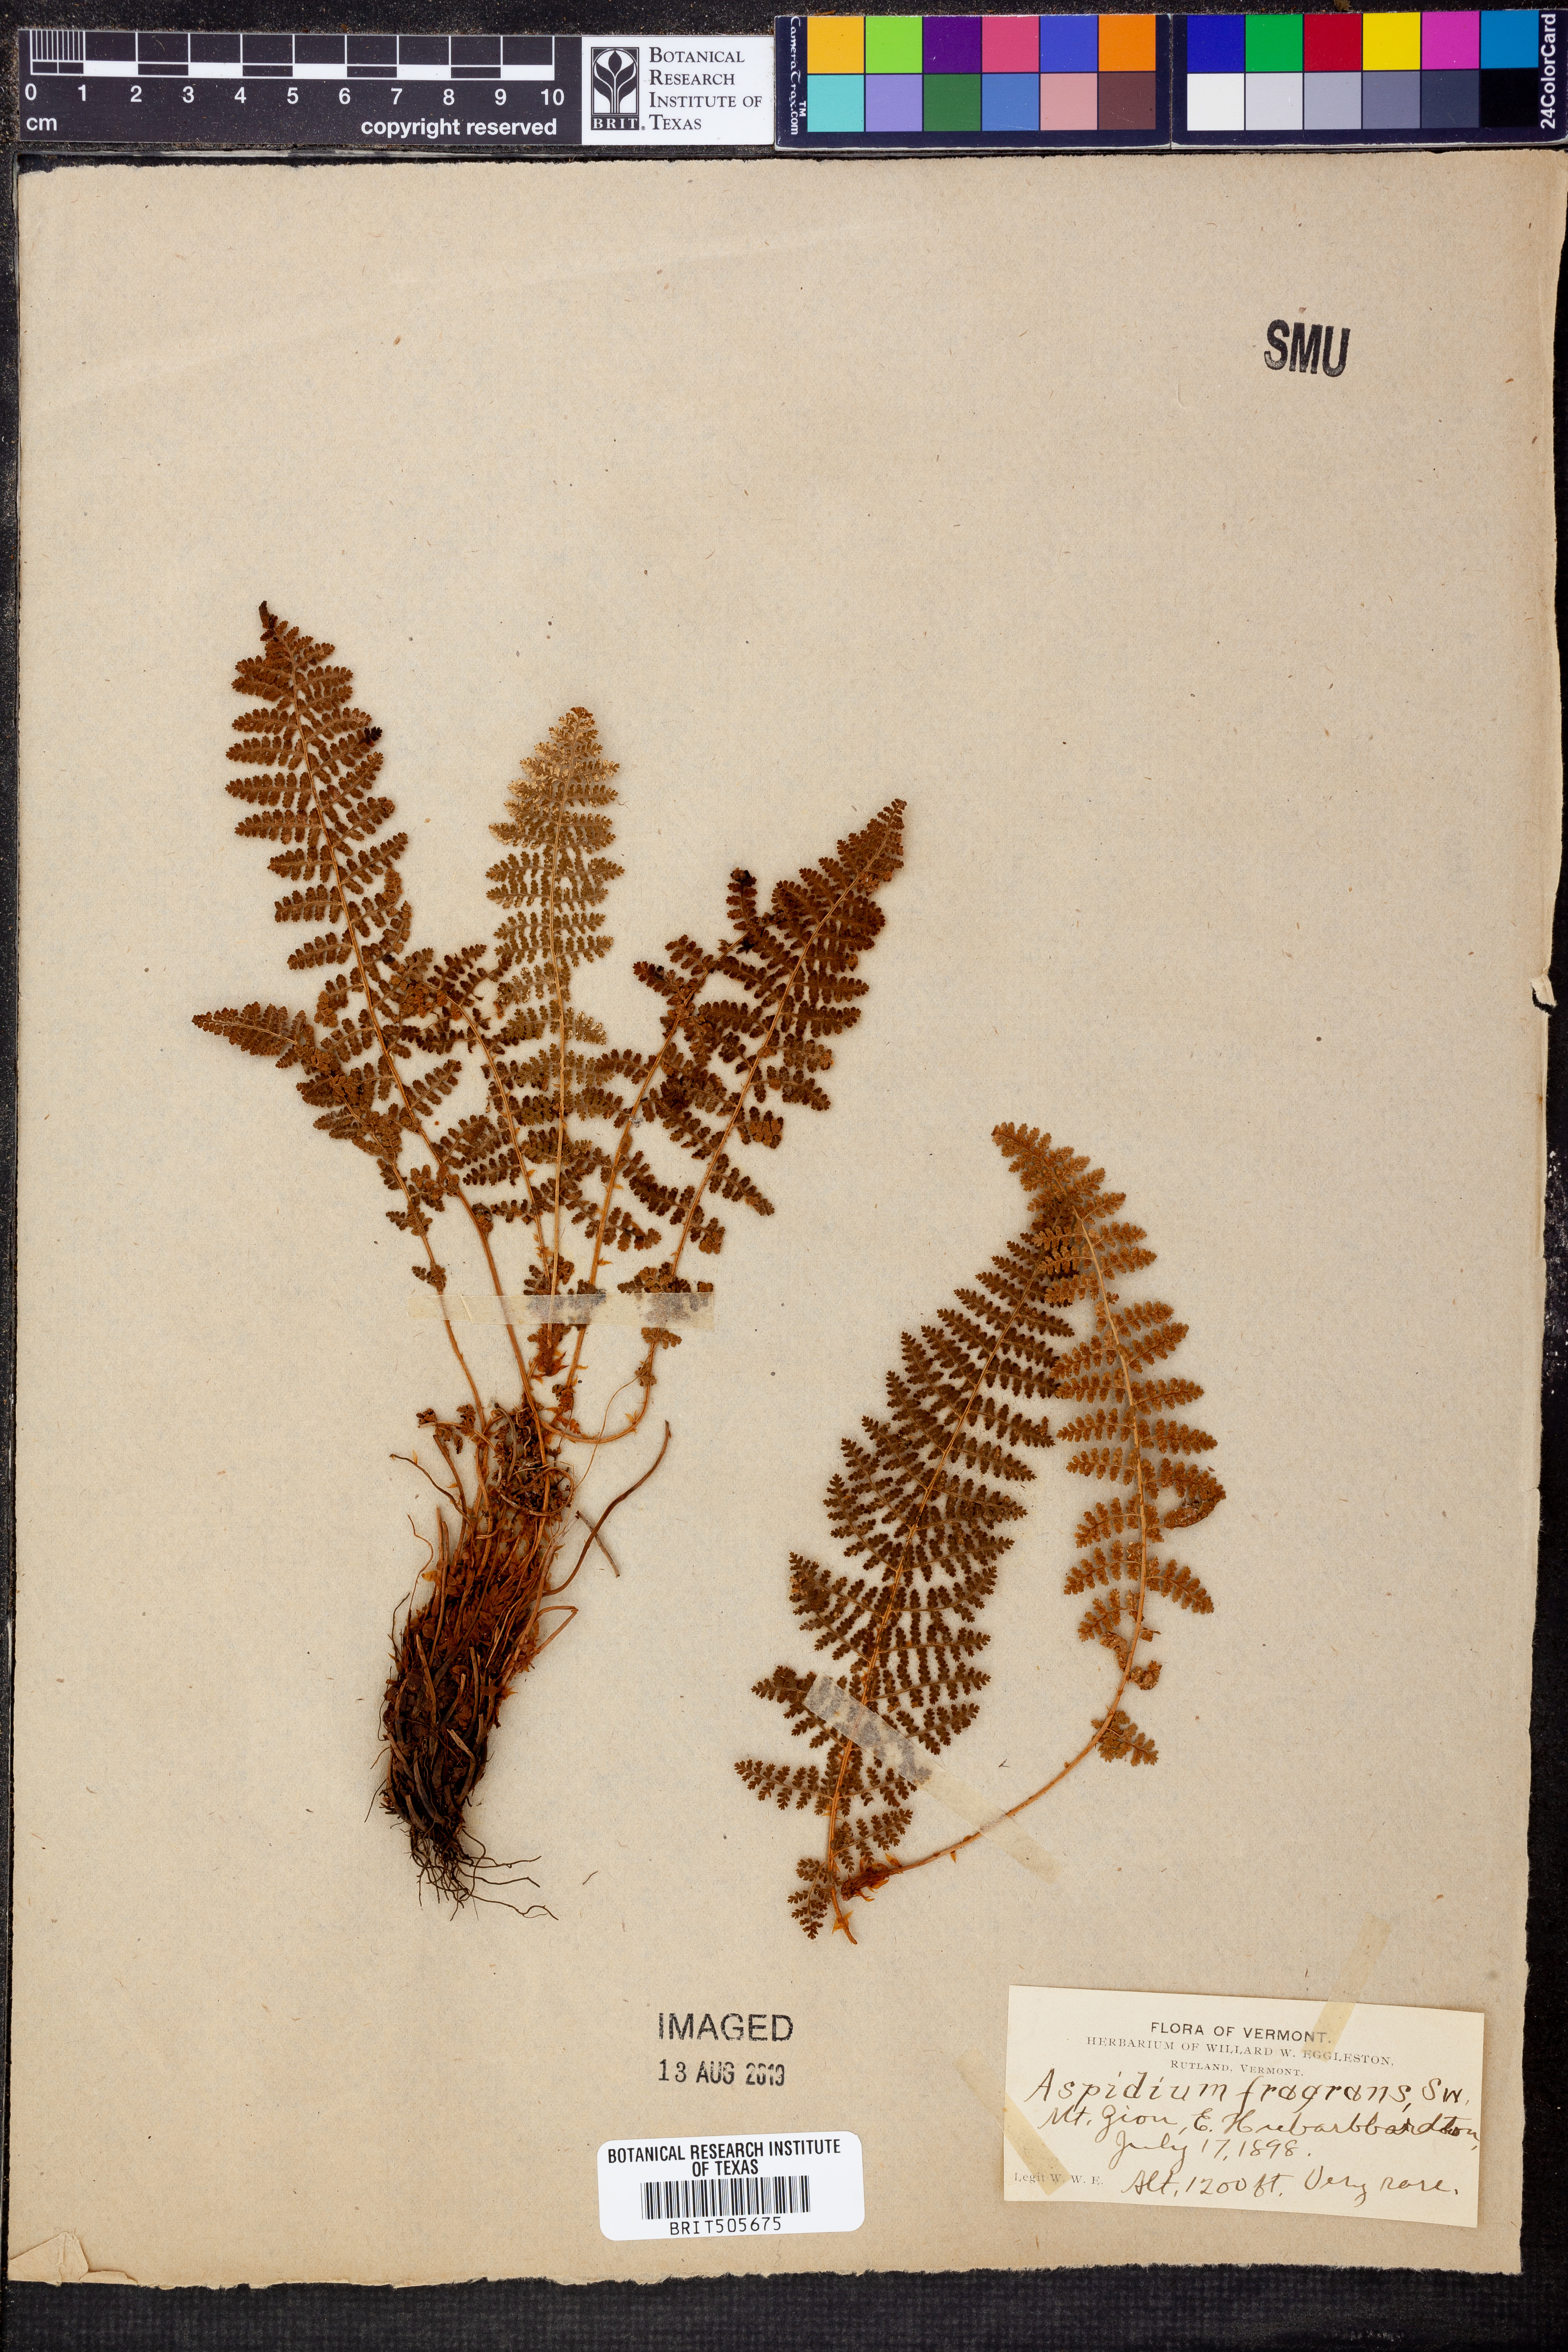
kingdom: Plantae
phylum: Tracheophyta
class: Polypodiopsida
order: Polypodiales
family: Dryopteridaceae
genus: Dryopteris
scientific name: Dryopteris fragrans
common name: Fragrant wood fern
